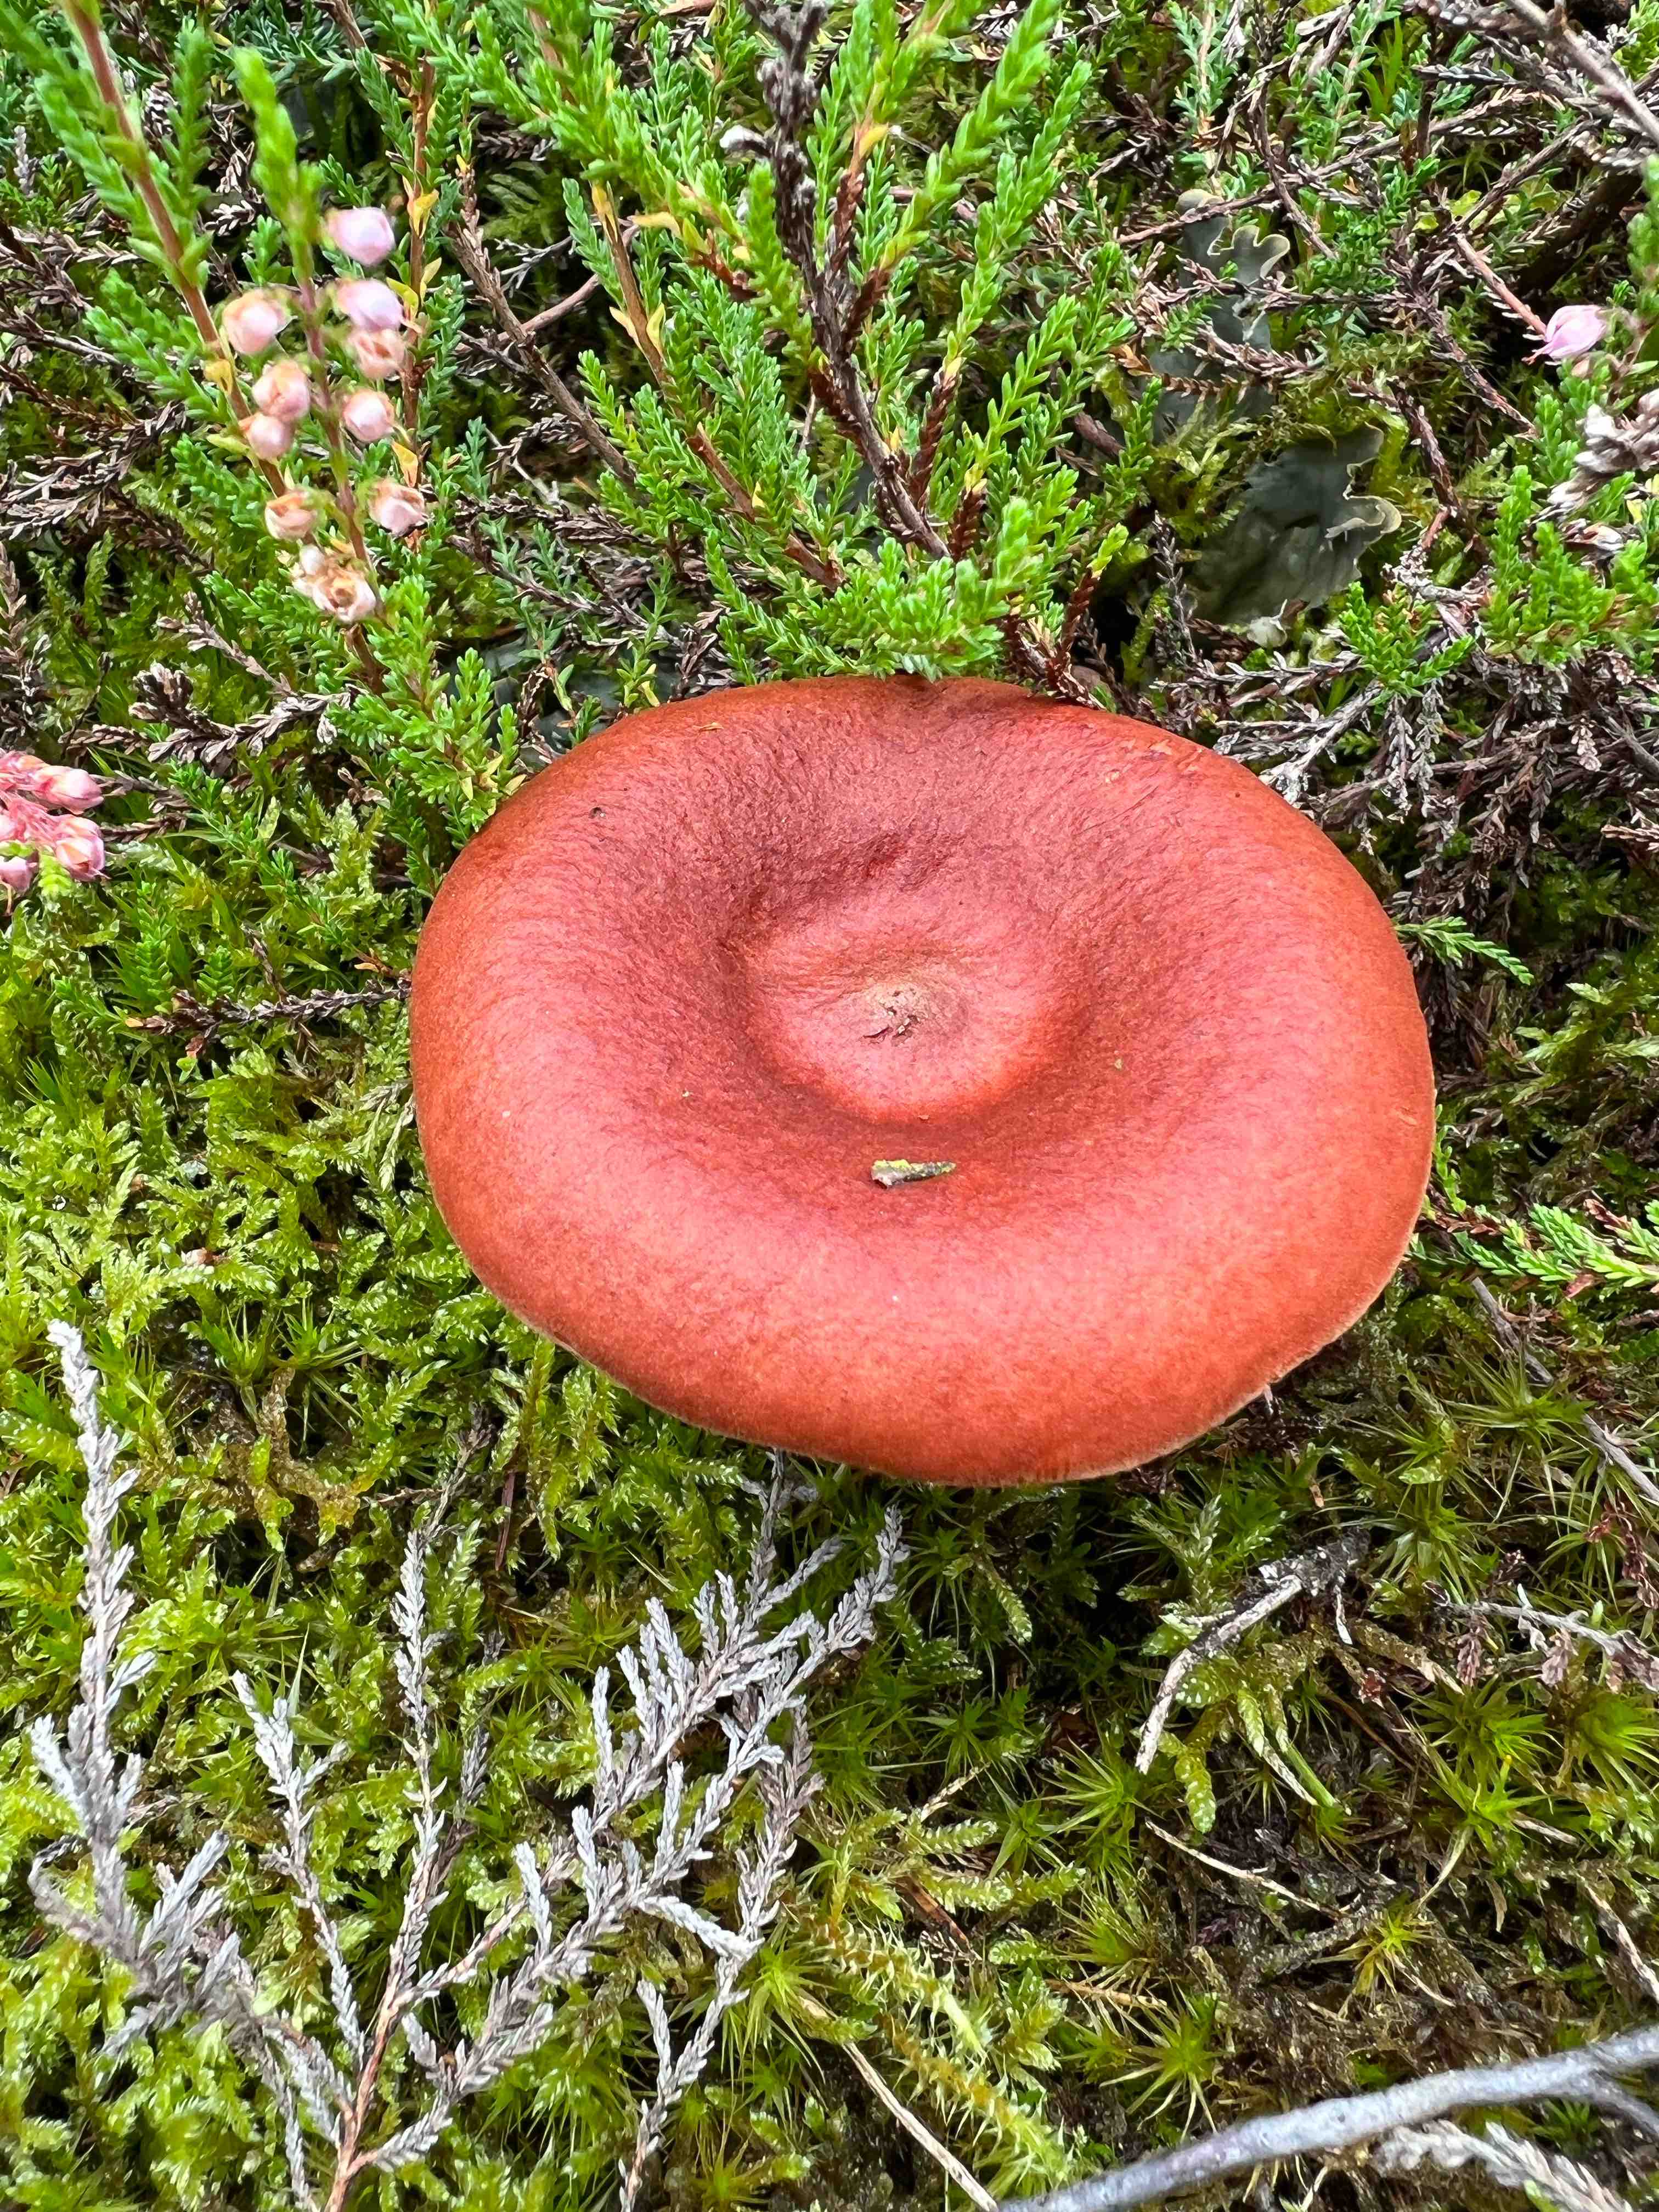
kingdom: Fungi
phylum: Basidiomycota
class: Agaricomycetes
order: Russulales
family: Russulaceae
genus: Lactarius
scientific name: Lactarius rufus
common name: rødbrun mælkehat
